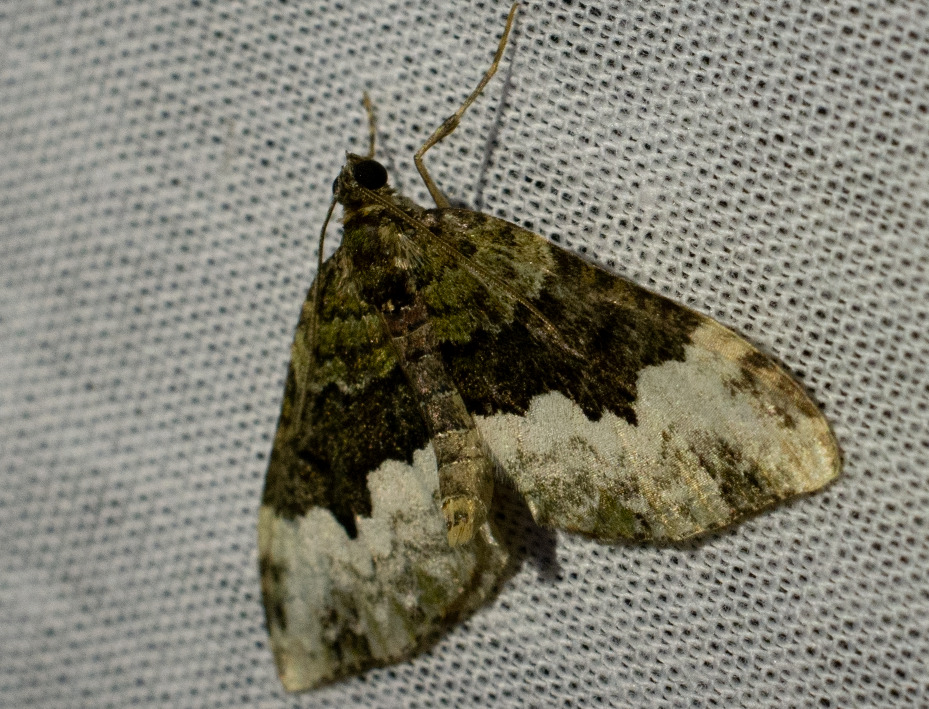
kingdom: Animalia
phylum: Arthropoda
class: Insecta
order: Lepidoptera
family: Geometridae
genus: Euphyia
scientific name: Euphyia biangulata
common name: Fladstjerne-bladmåler
